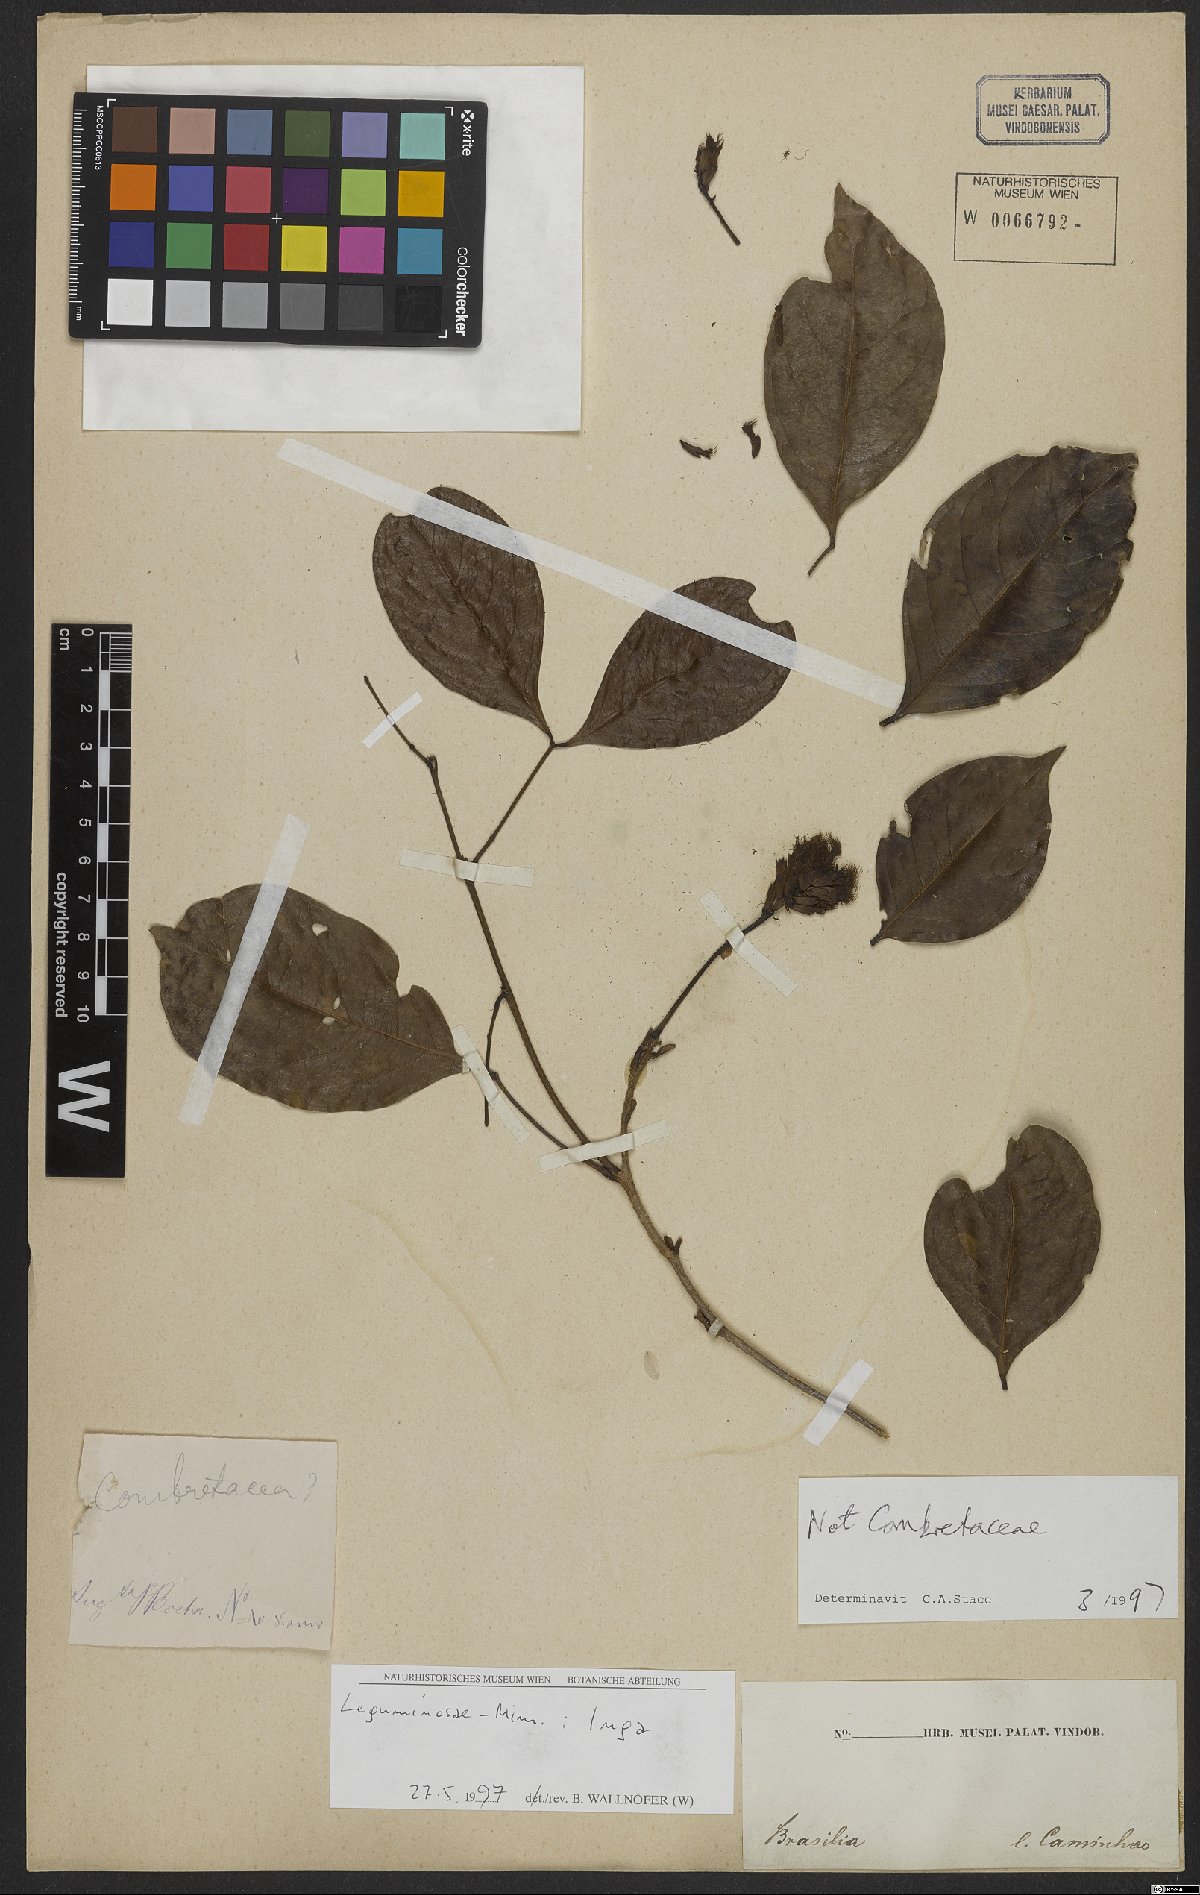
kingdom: Plantae
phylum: Tracheophyta
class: Magnoliopsida
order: Fabales
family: Fabaceae
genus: Inga
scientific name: Inga
